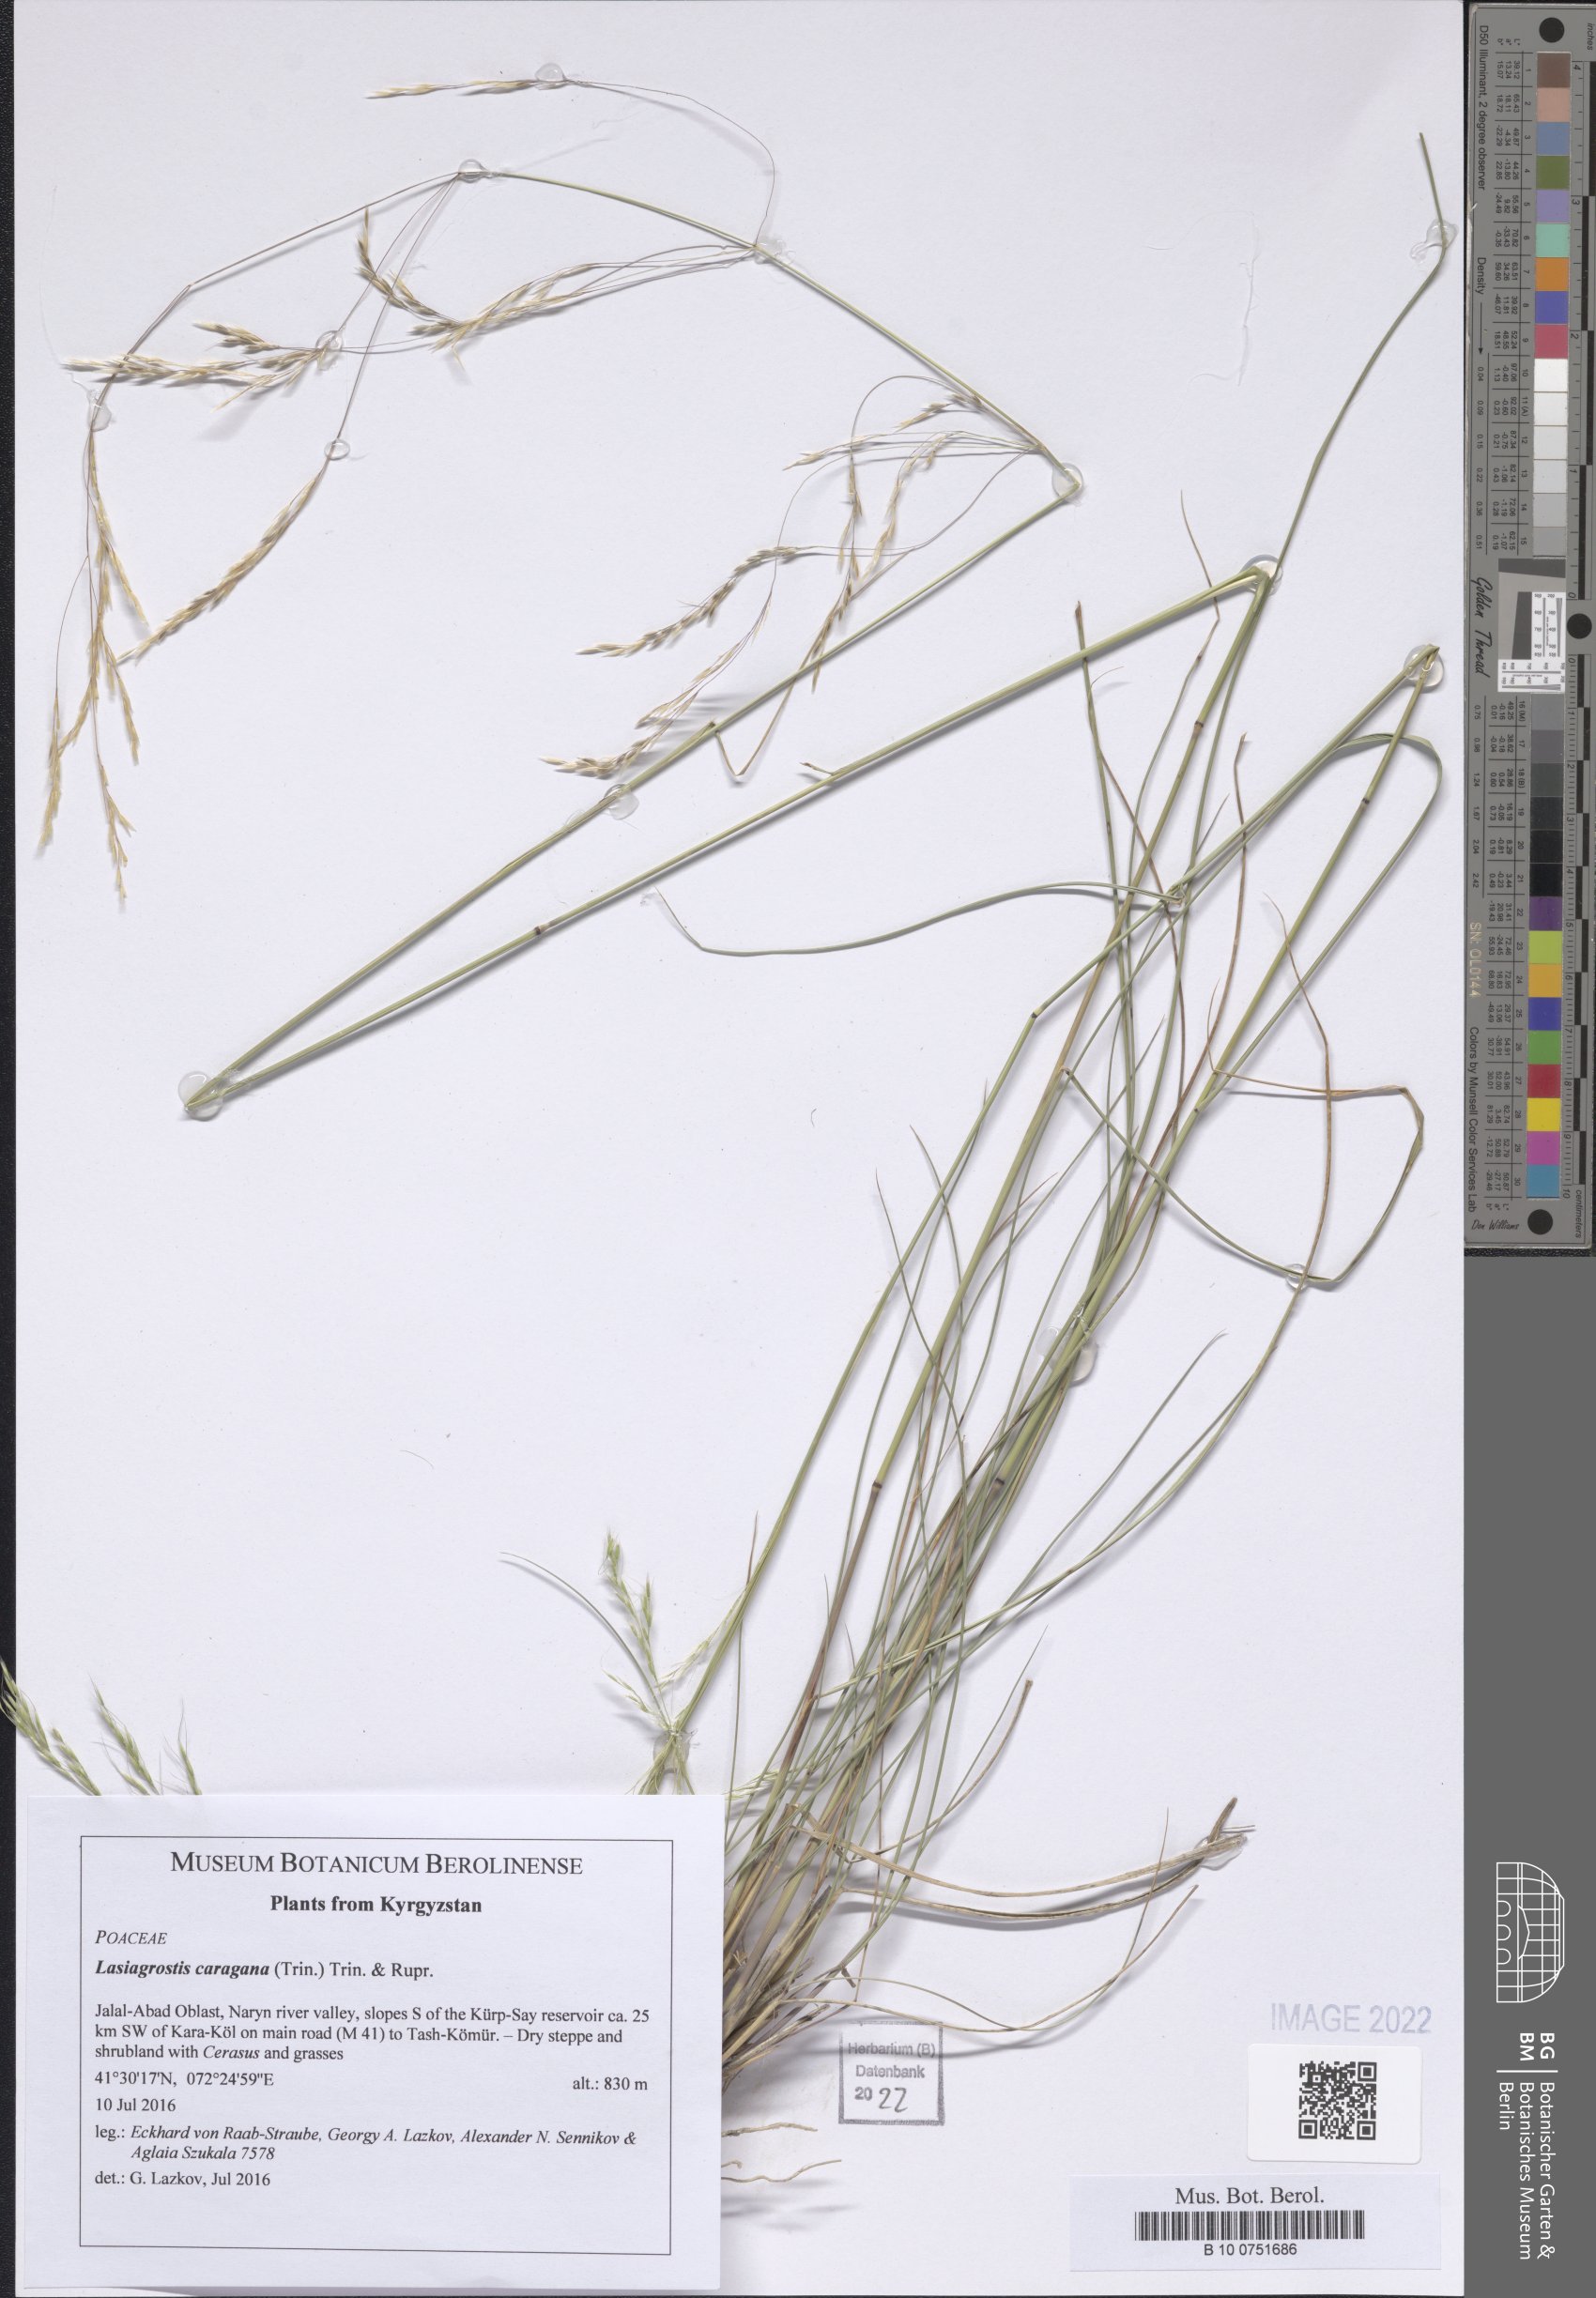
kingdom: Plantae
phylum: Tracheophyta
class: Liliopsida
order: Poales
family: Poaceae
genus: Stipa
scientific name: Stipa conferta
